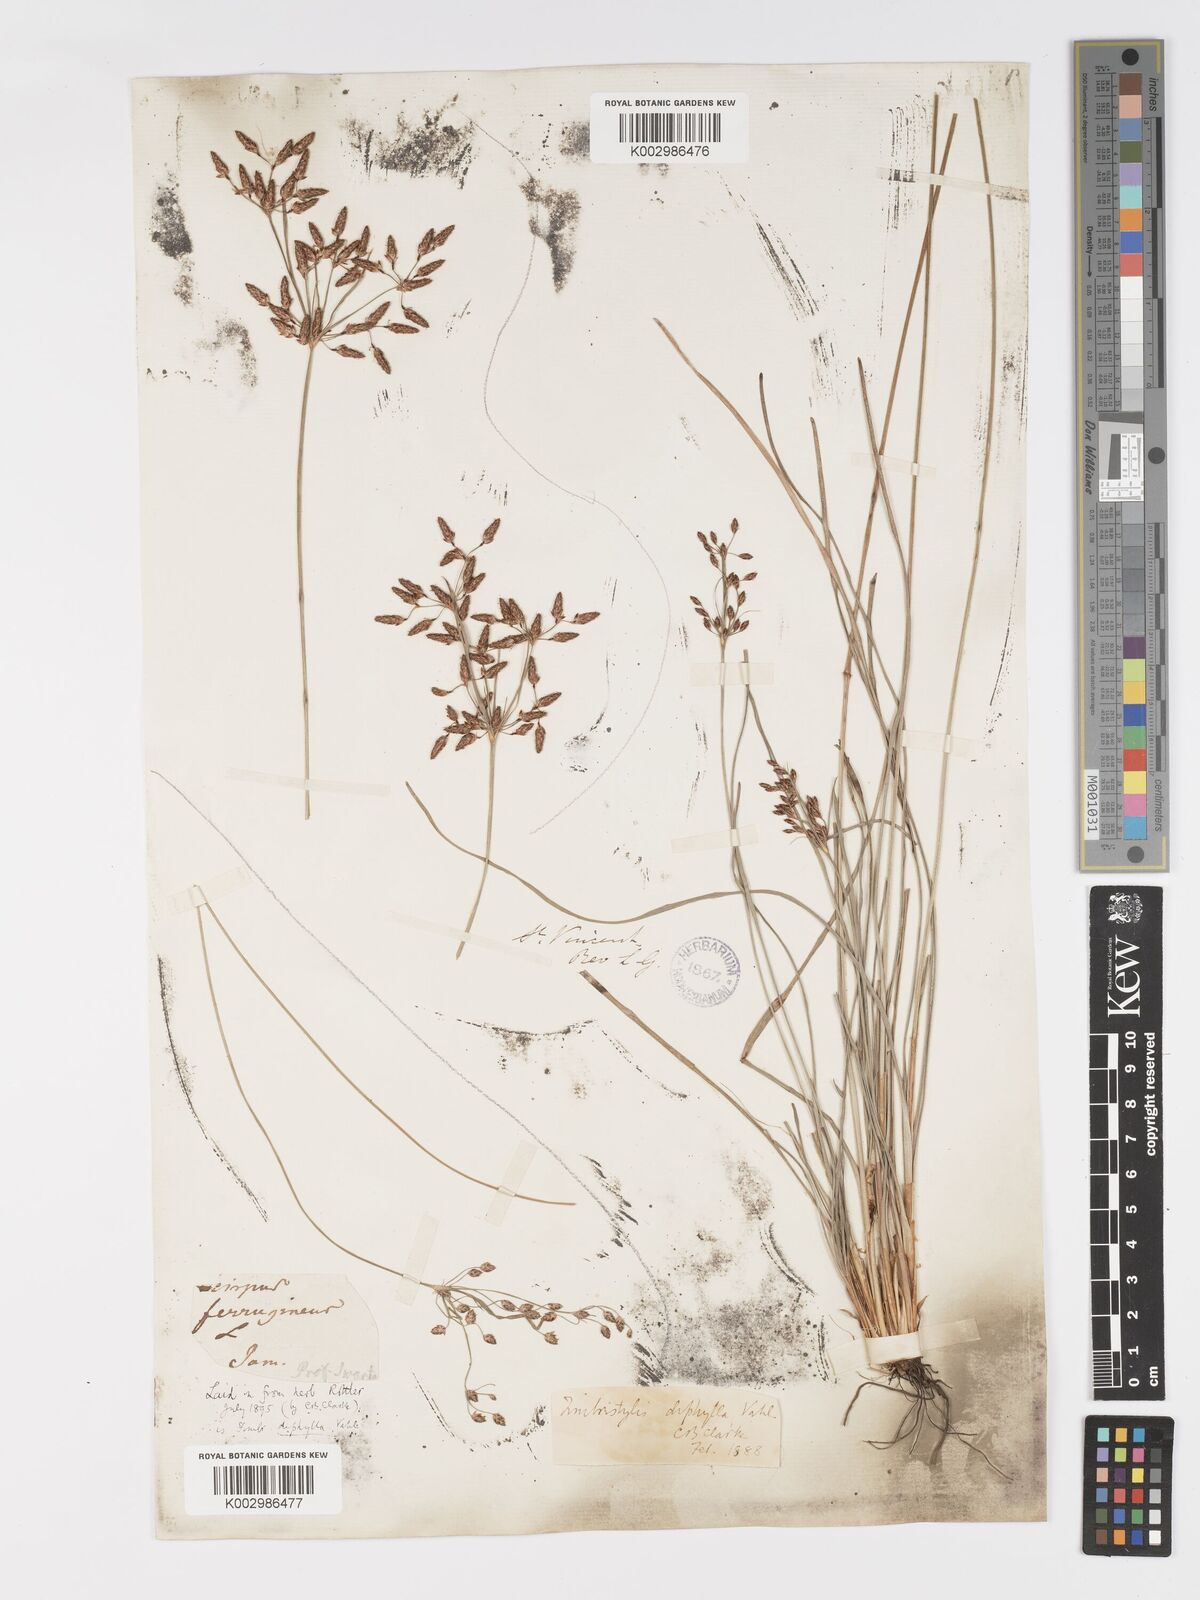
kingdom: Plantae
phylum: Tracheophyta
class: Liliopsida
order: Poales
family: Cyperaceae
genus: Fimbristylis
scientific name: Fimbristylis dichotoma
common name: Forked fimbry
